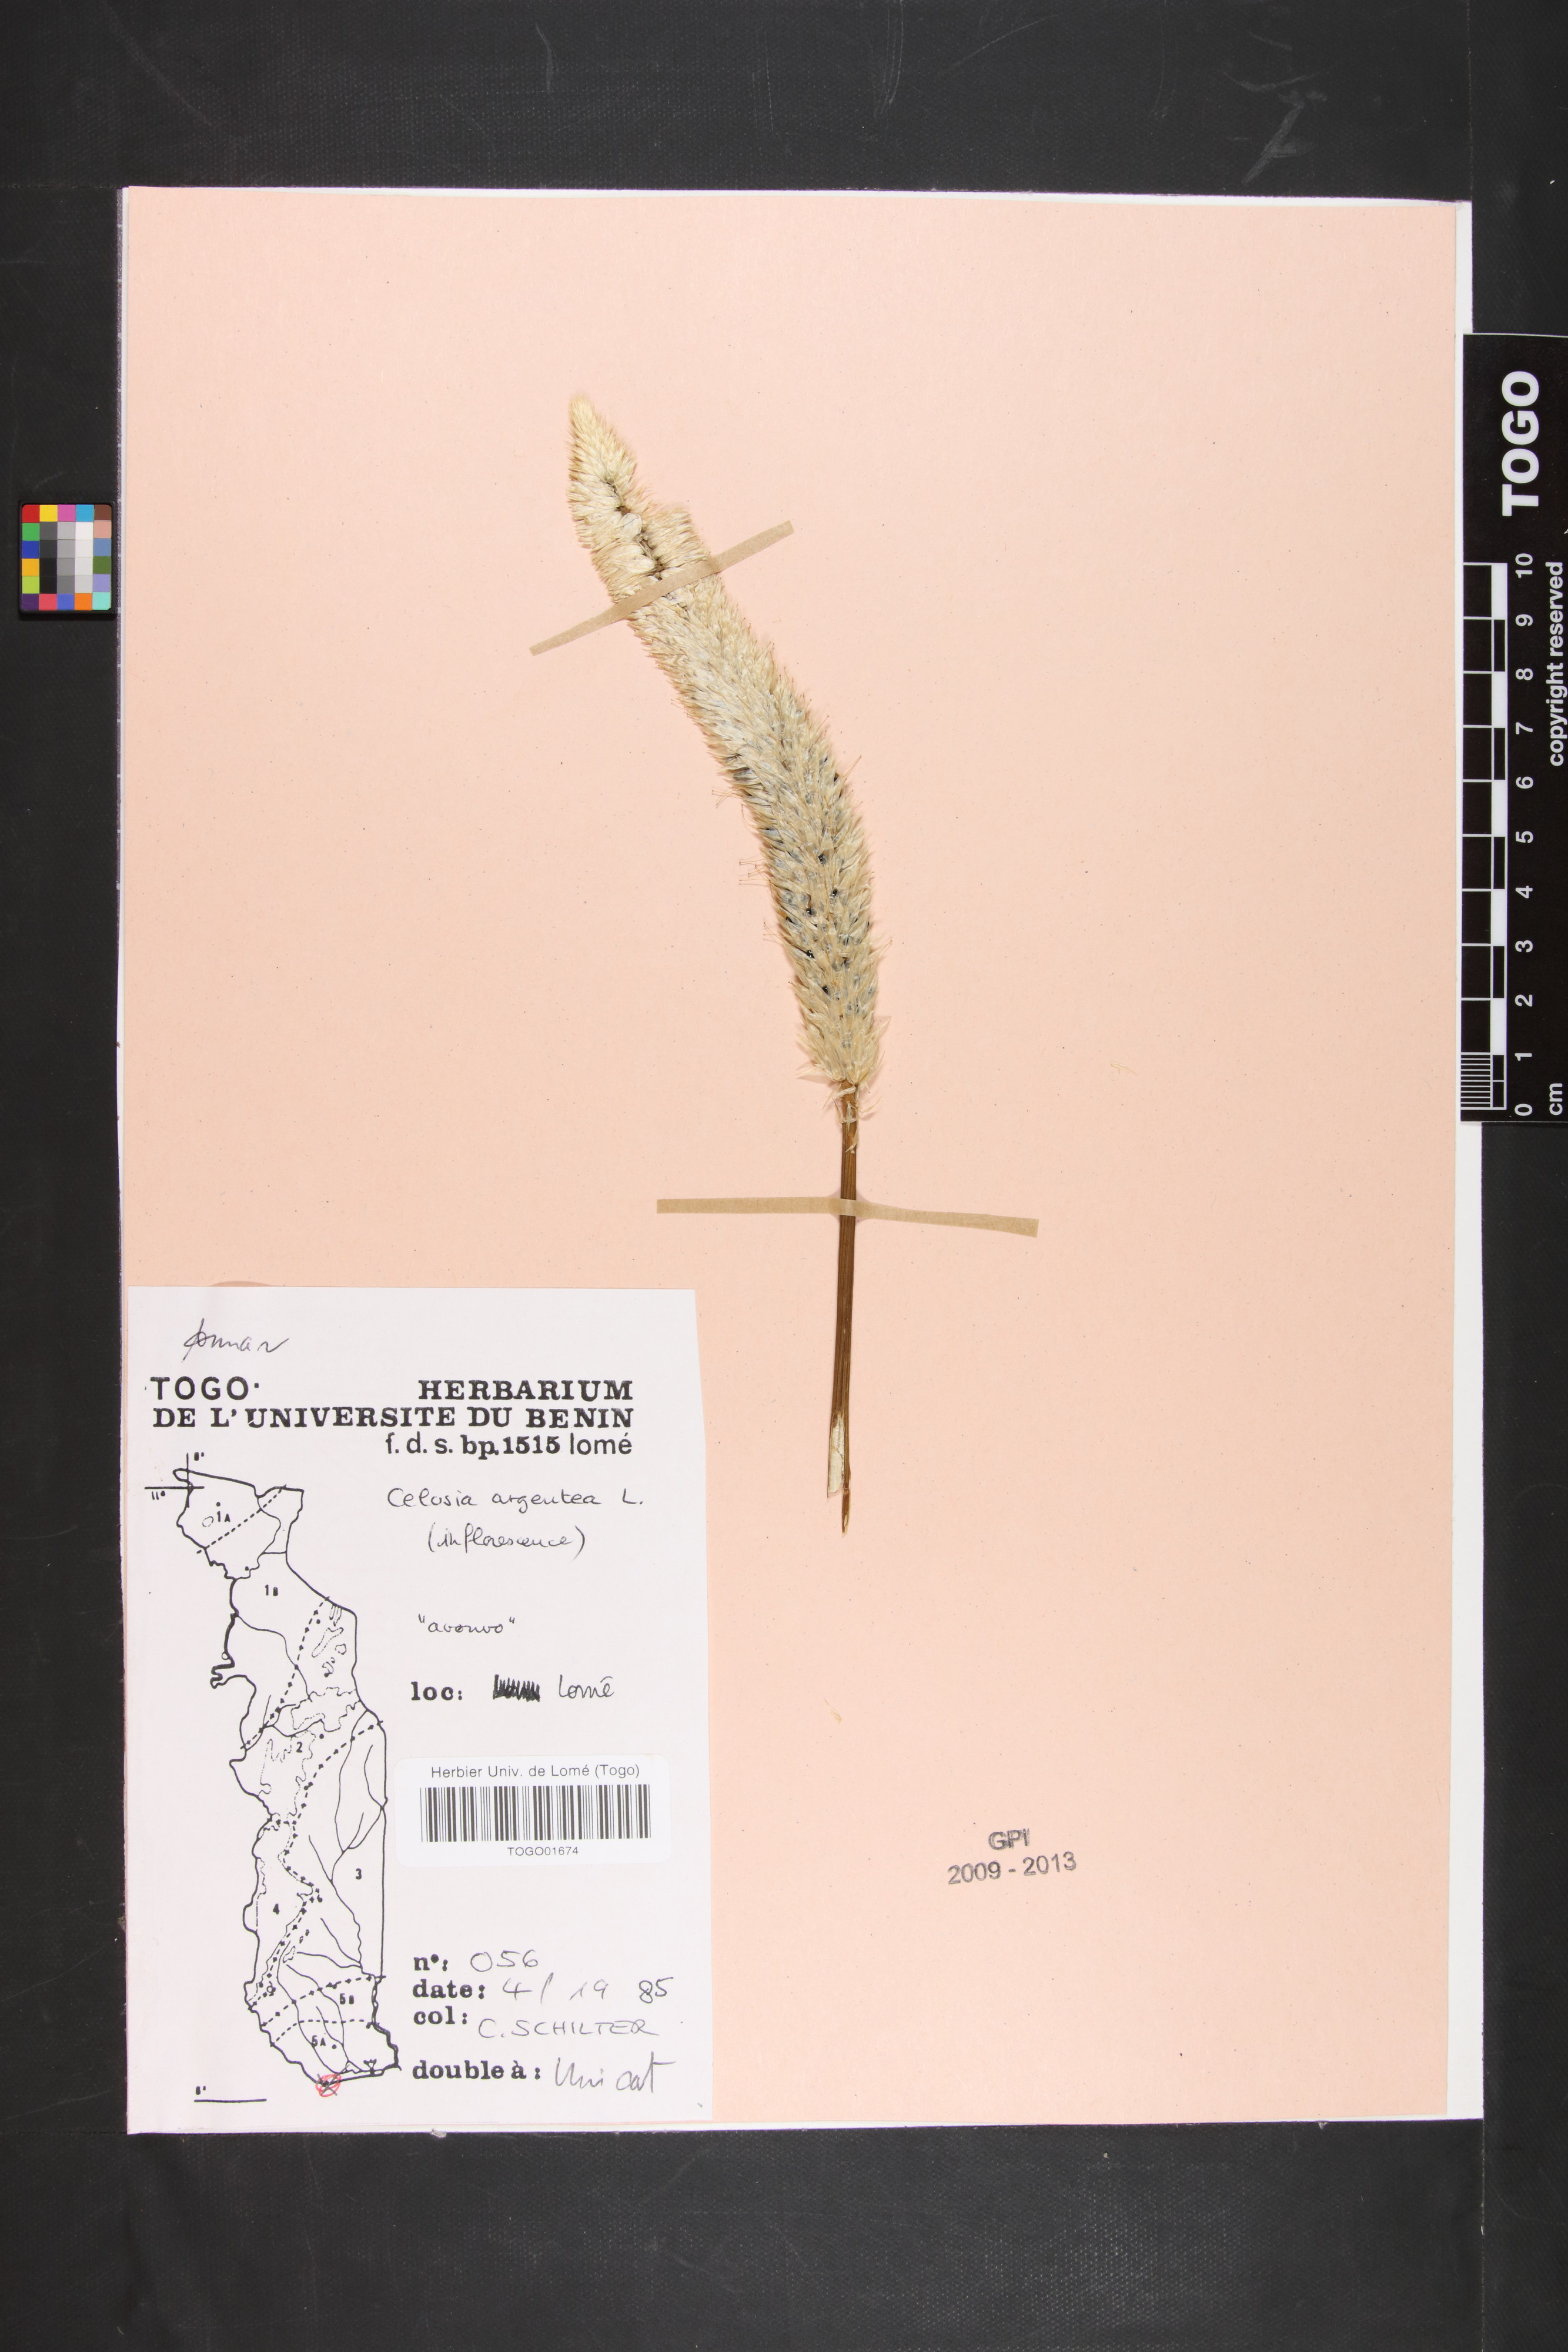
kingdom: Plantae
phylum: Tracheophyta
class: Magnoliopsida
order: Caryophyllales
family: Amaranthaceae
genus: Celosia
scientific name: Celosia argentea
